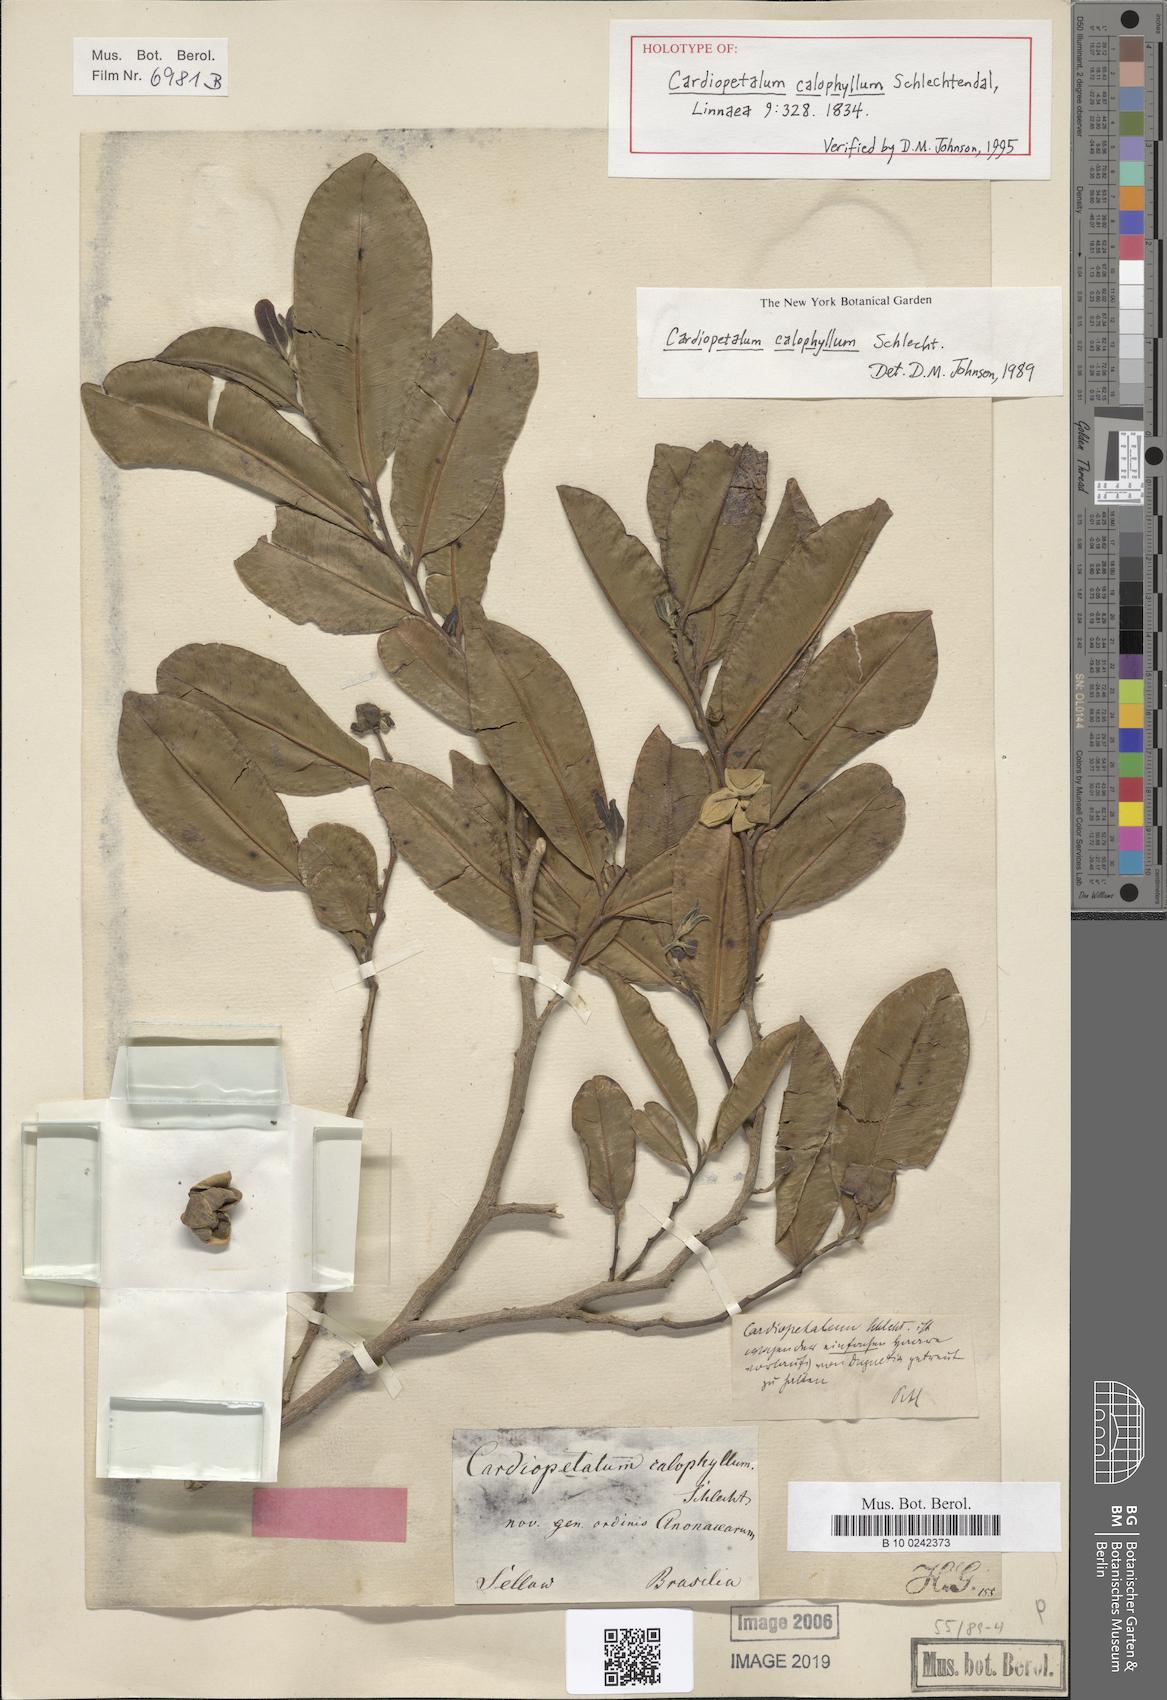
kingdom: Plantae
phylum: Tracheophyta
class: Magnoliopsida
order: Magnoliales
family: Annonaceae
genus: Cardiopetalum
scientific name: Cardiopetalum calophyllum
